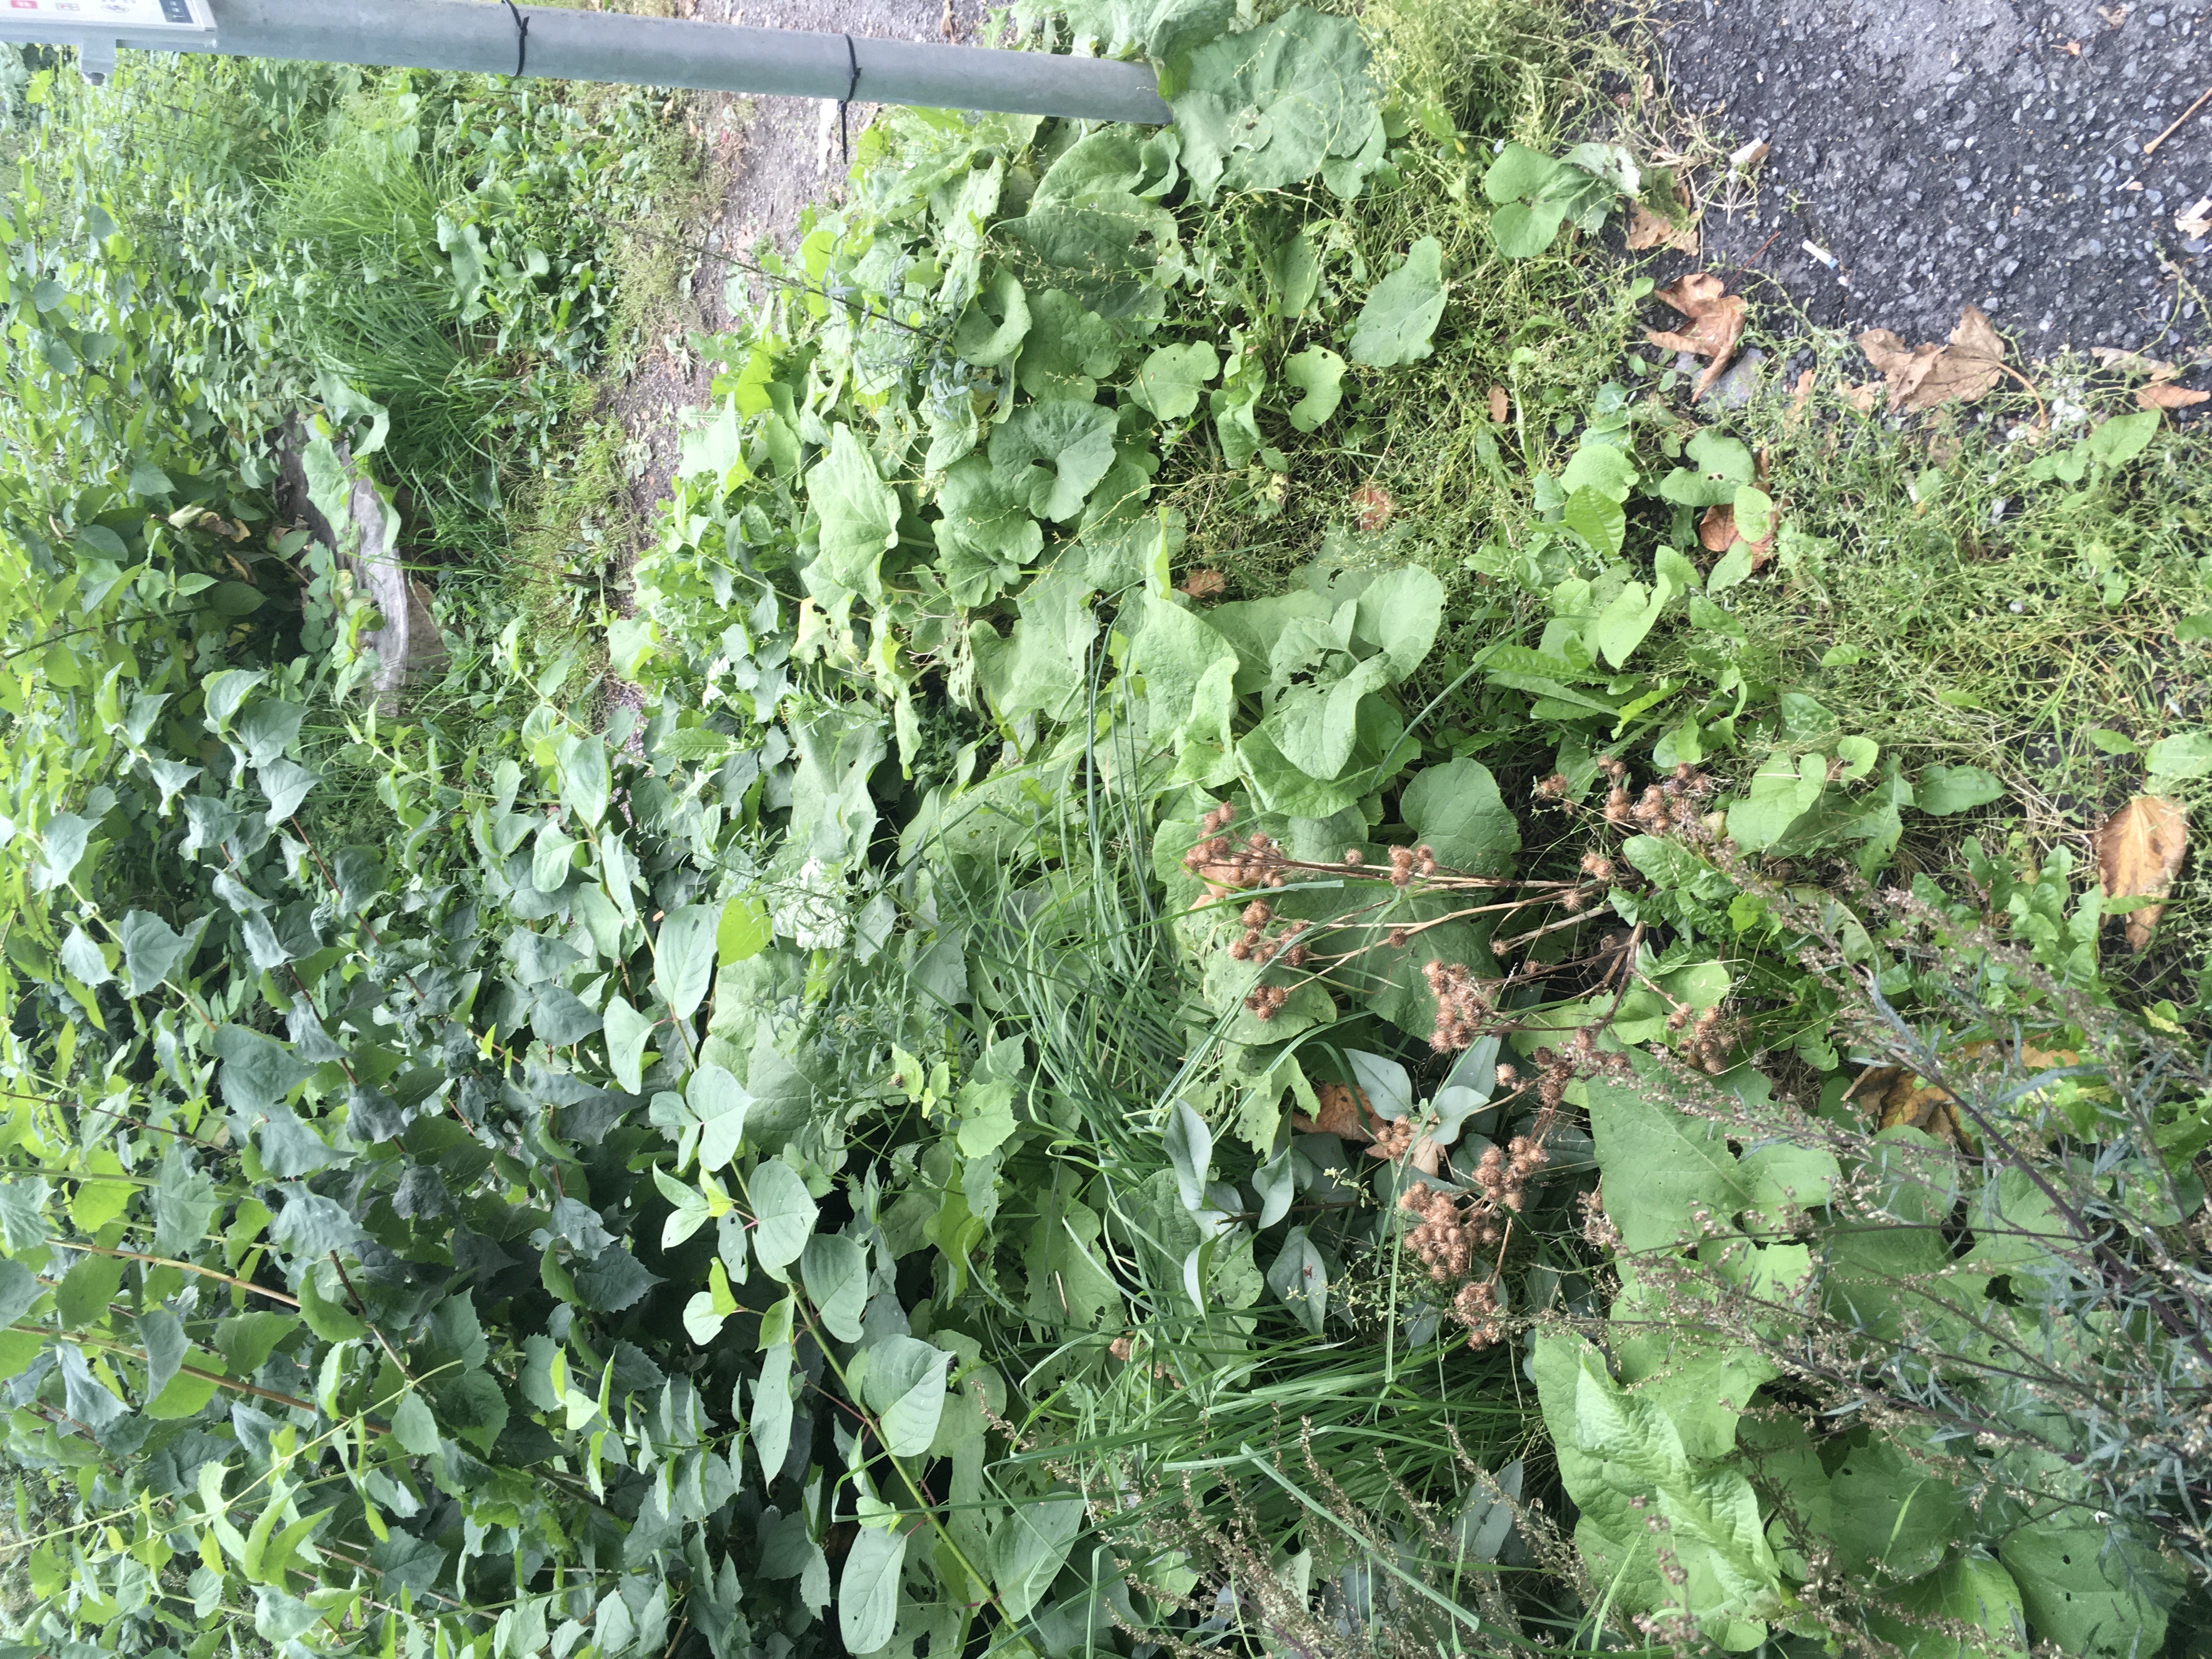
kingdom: Plantae
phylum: Tracheophyta
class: Magnoliopsida
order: Asterales
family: Asteraceae
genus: Arctium
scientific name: Arctium tomentosum
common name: ullborre
